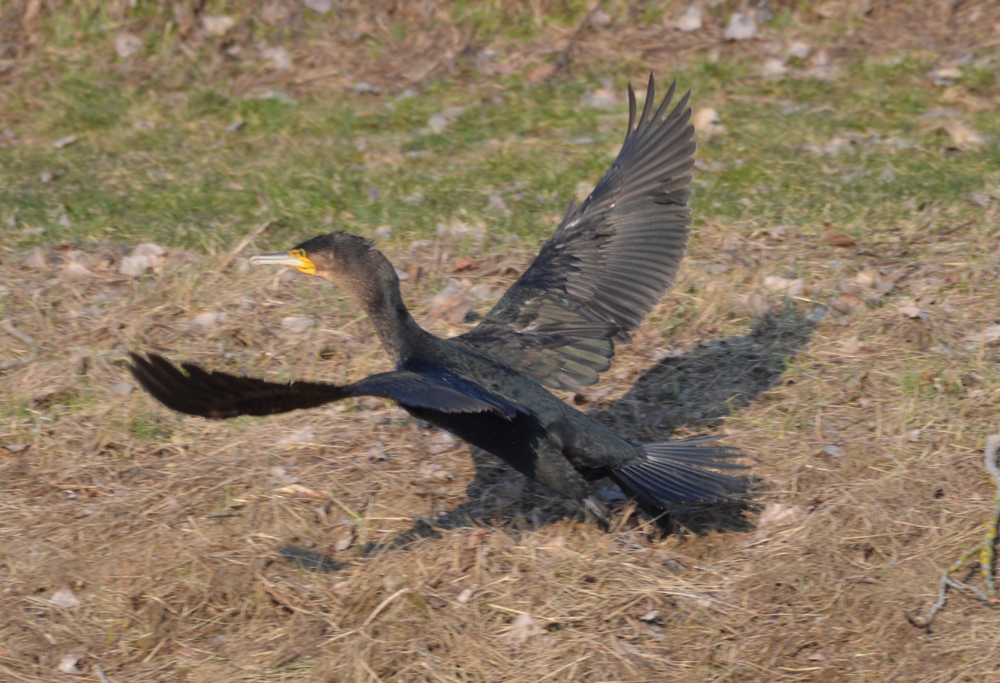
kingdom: Animalia
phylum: Chordata
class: Aves
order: Suliformes
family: Phalacrocoracidae
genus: Phalacrocorax
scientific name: Phalacrocorax carbo
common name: Great cormorant
